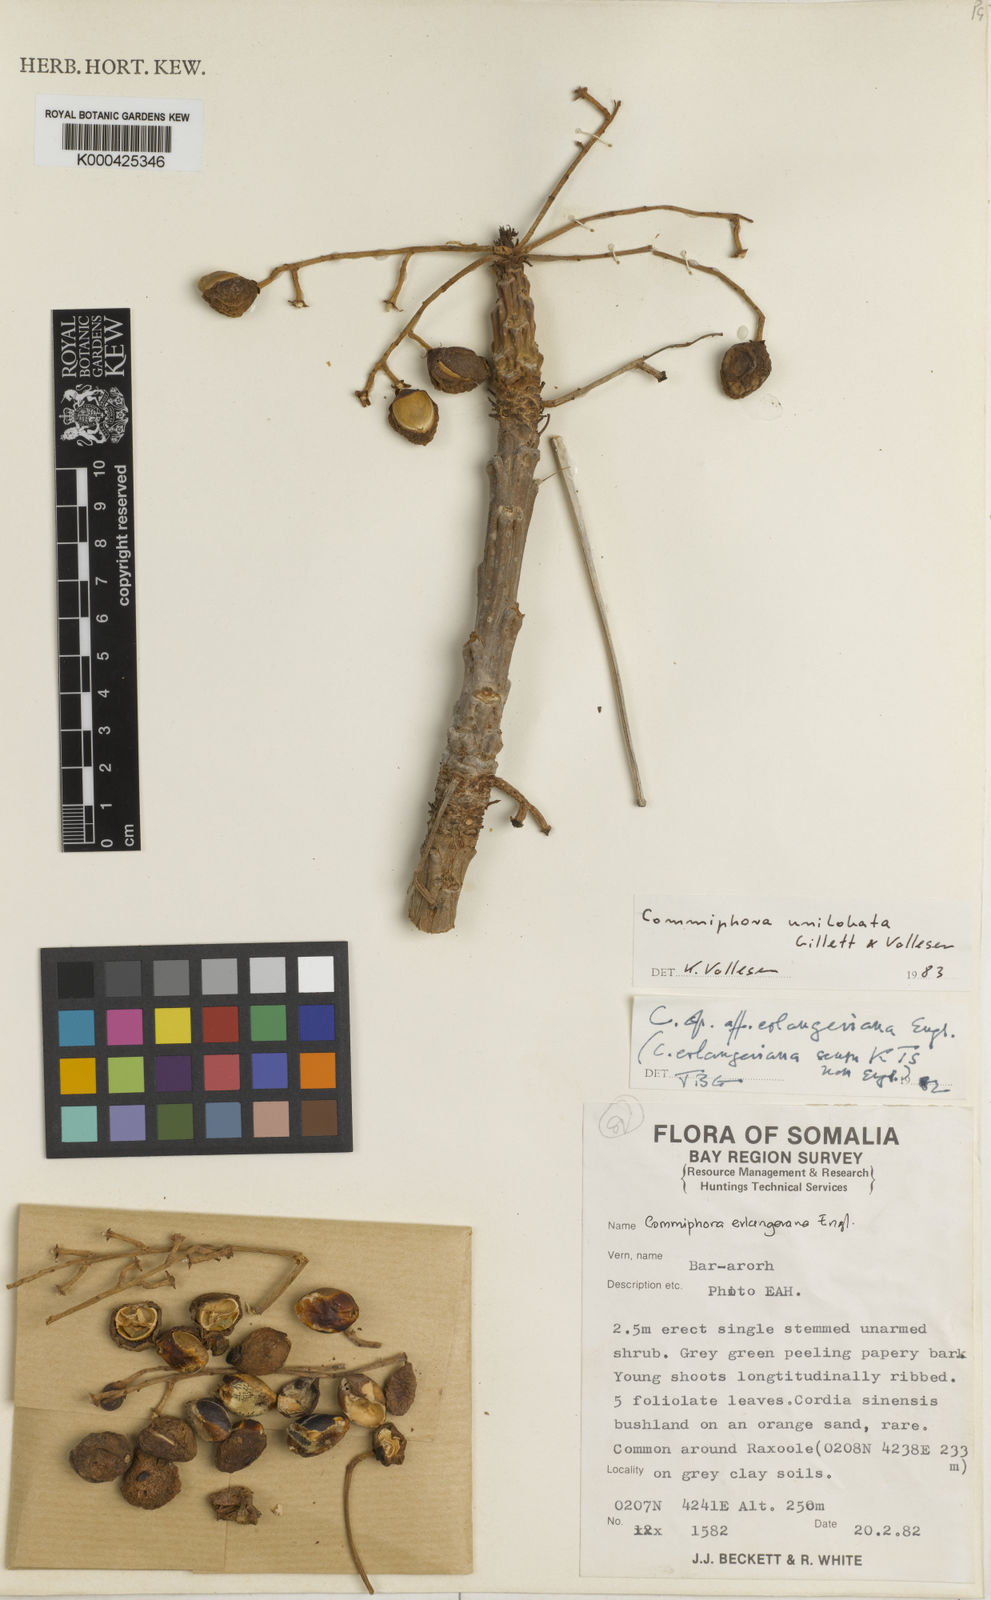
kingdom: Plantae
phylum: Tracheophyta
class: Magnoliopsida
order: Sapindales
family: Burseraceae
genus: Commiphora
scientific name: Commiphora unilobata
